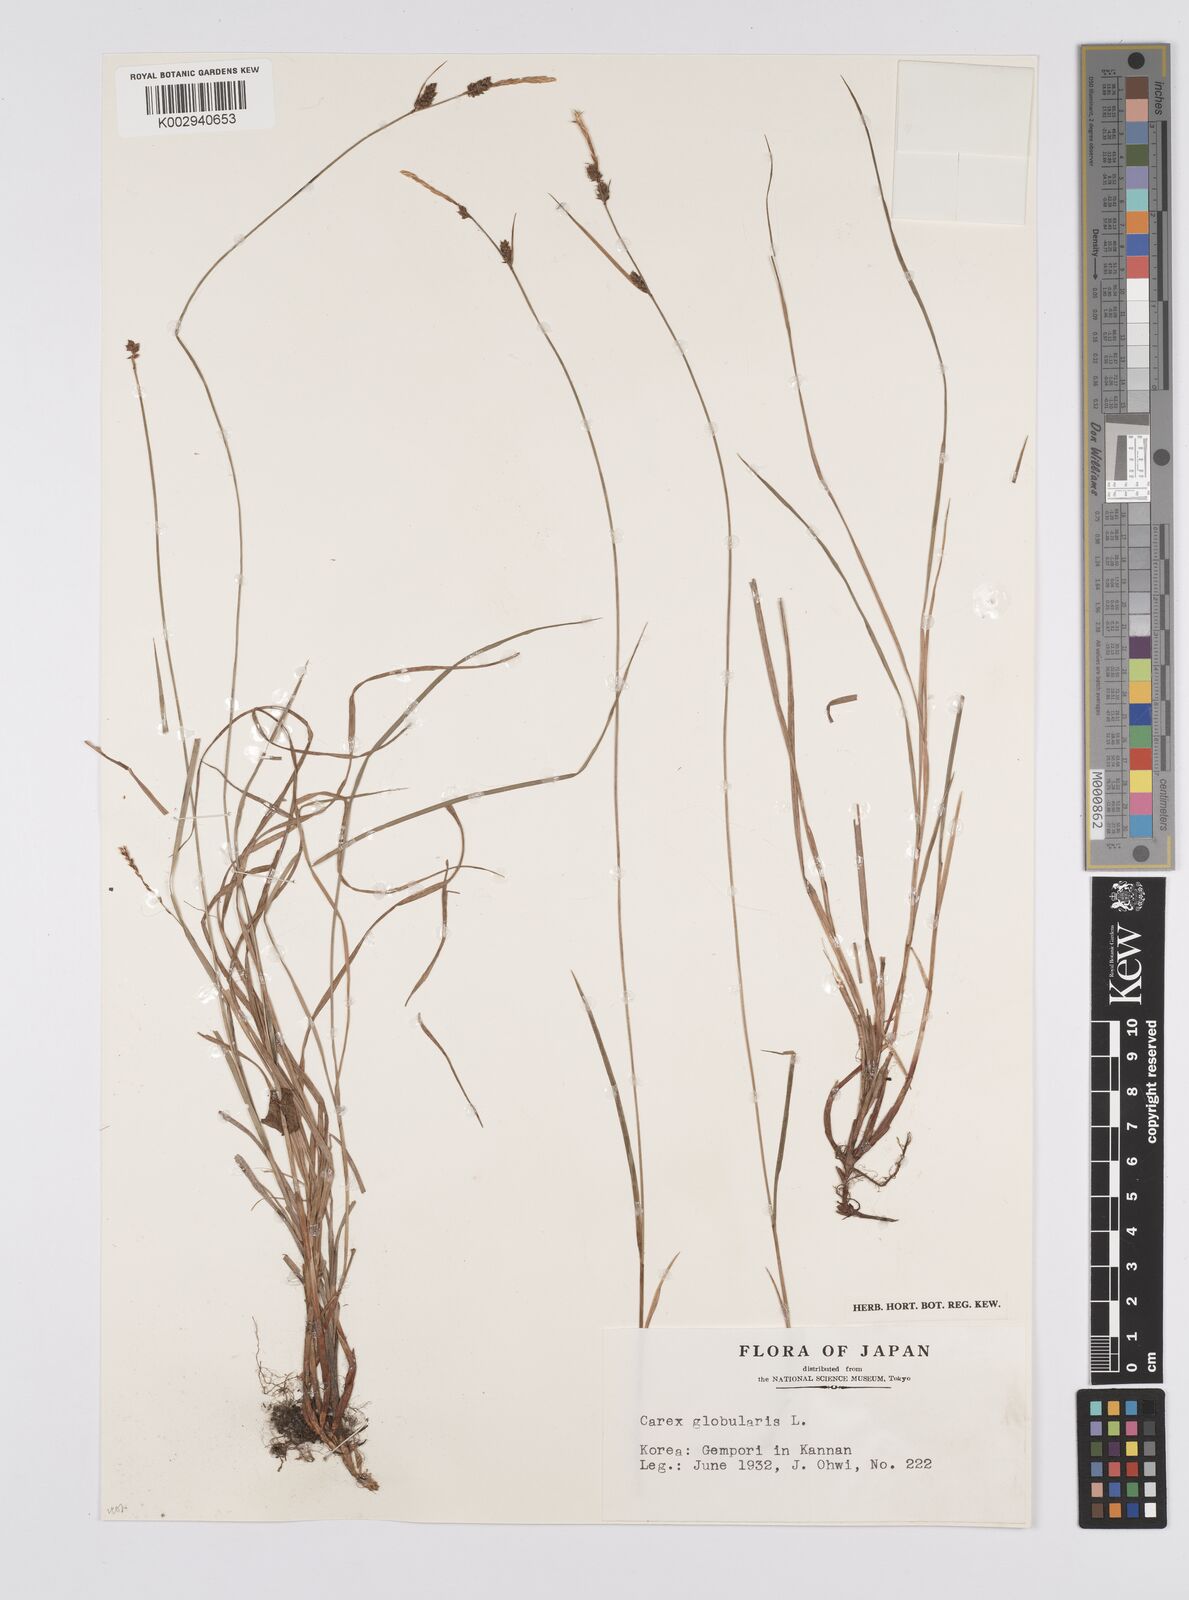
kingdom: Plantae
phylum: Tracheophyta
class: Liliopsida
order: Poales
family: Cyperaceae
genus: Carex
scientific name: Carex globularis
